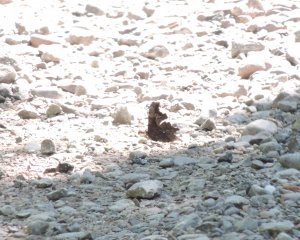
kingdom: Animalia
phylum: Arthropoda
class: Insecta
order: Lepidoptera
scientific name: Lepidoptera
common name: Butterflies
